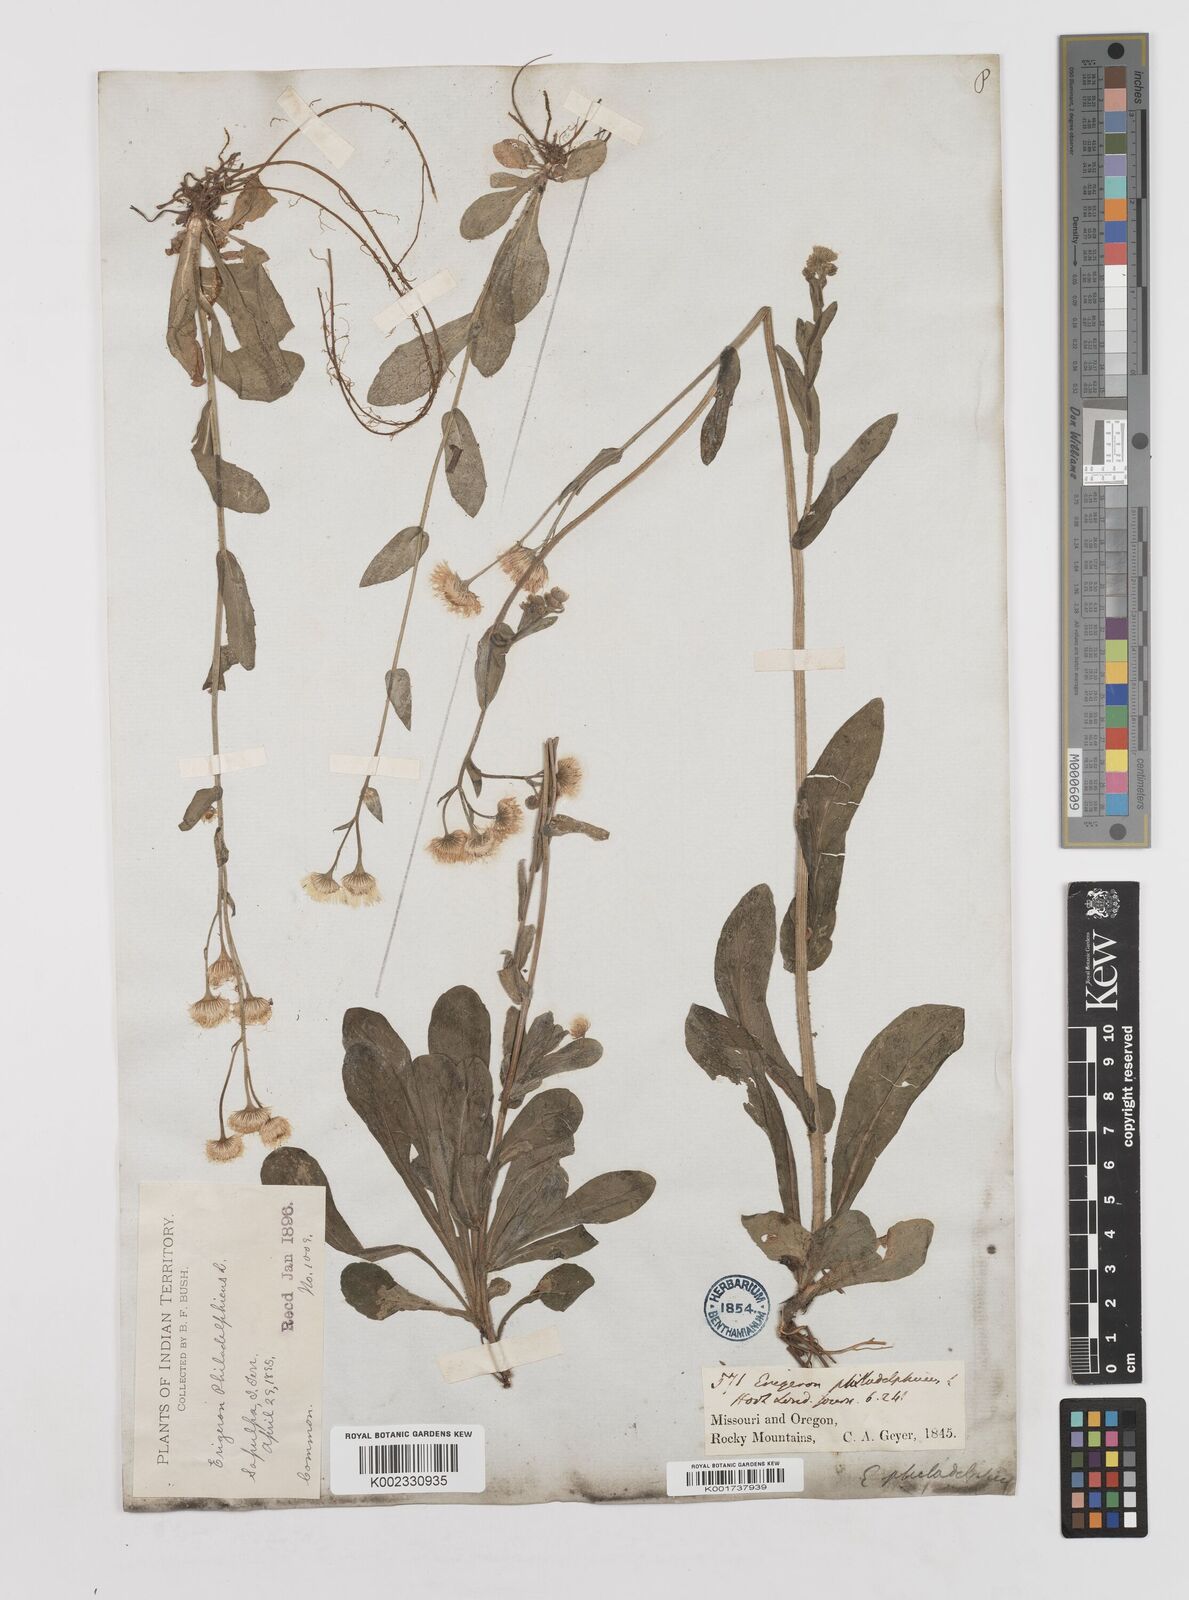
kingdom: Plantae
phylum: Tracheophyta
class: Magnoliopsida
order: Asterales
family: Asteraceae
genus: Erigeron
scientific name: Erigeron philadelphicus
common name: Robin's-plantain
